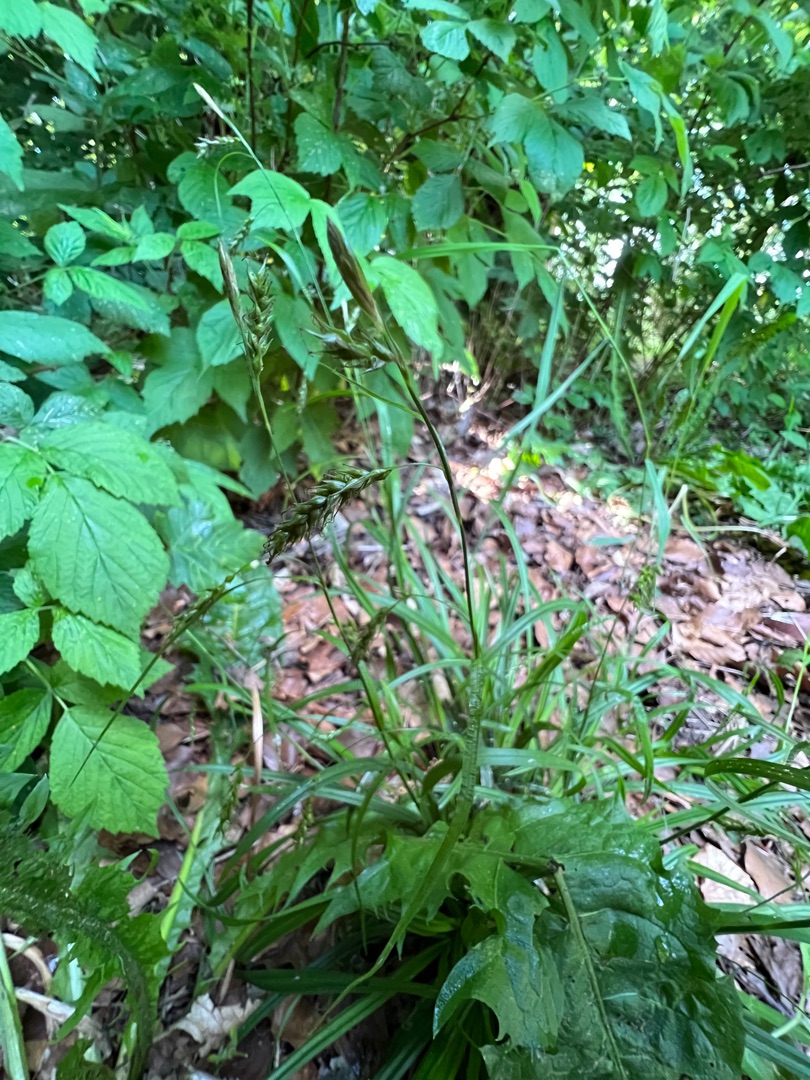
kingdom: Plantae
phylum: Tracheophyta
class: Liliopsida
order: Poales
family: Cyperaceae
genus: Carex
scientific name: Carex sylvatica
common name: Skov-star
